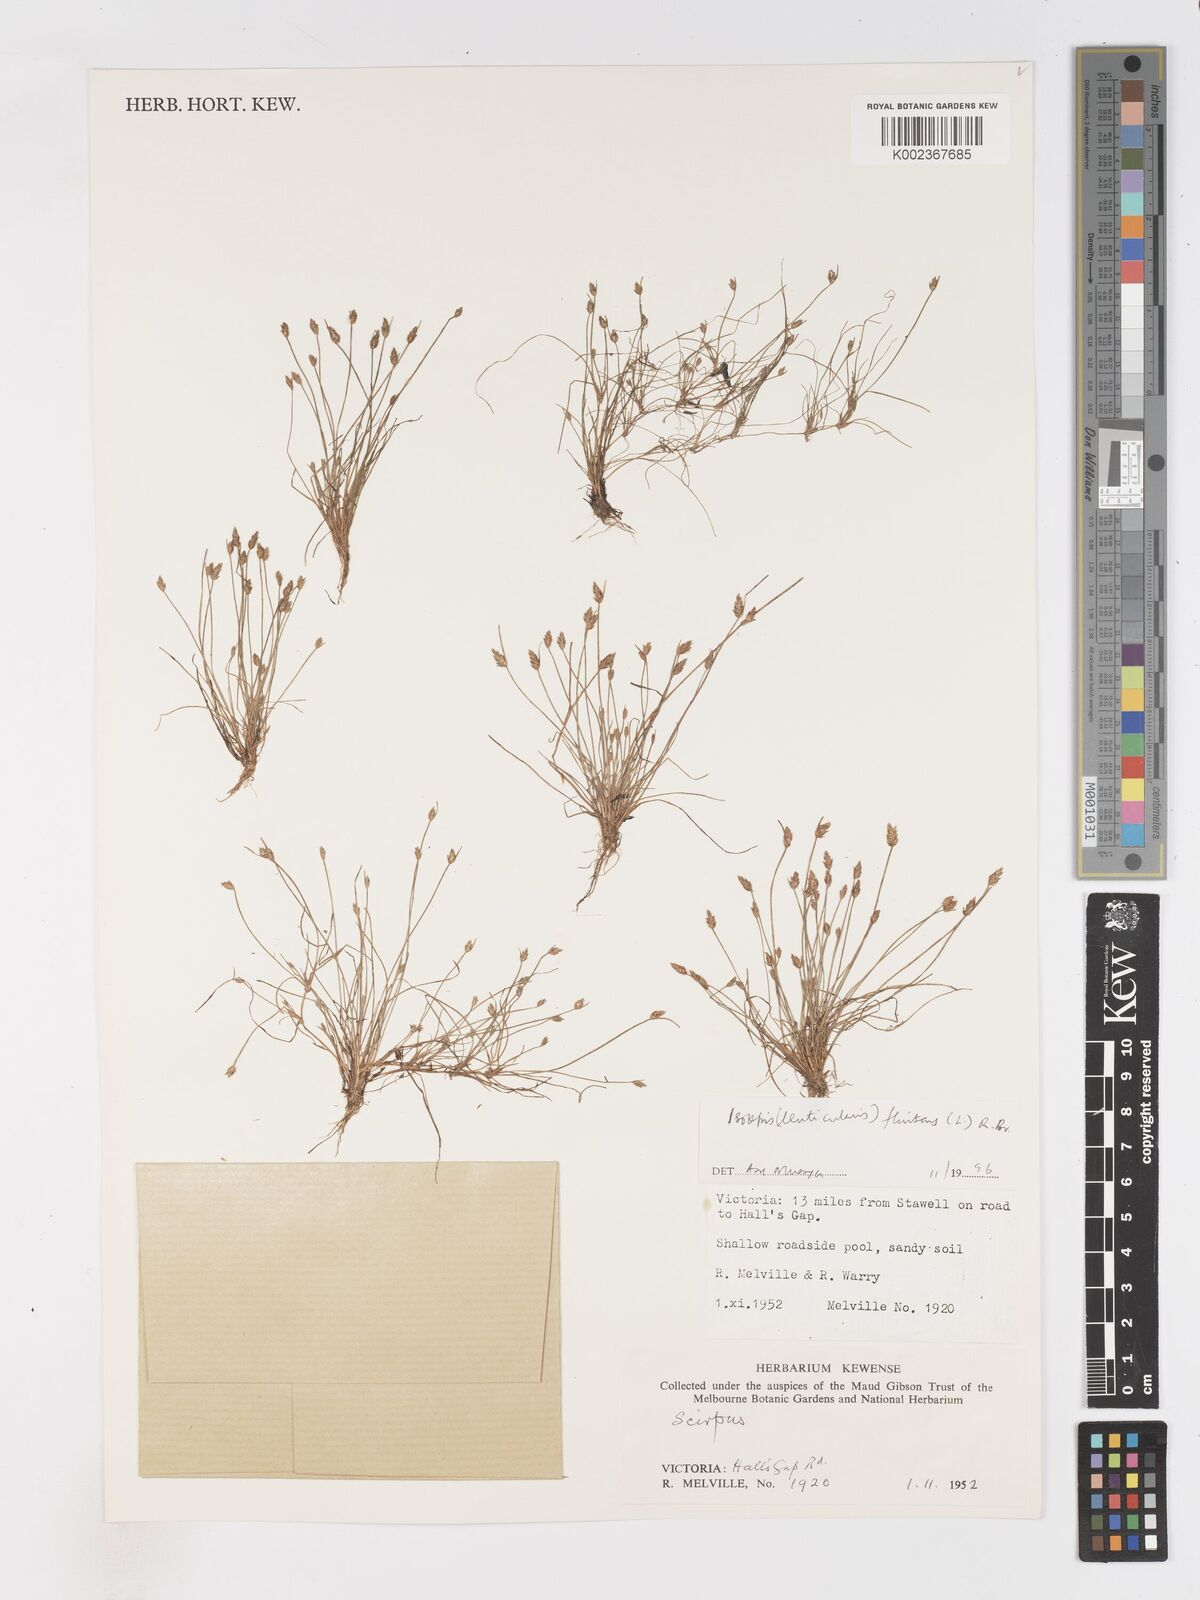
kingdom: Plantae
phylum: Tracheophyta
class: Liliopsida
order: Poales
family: Cyperaceae
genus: Isolepis
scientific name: Isolepis fluitans
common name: Floating club-rush
